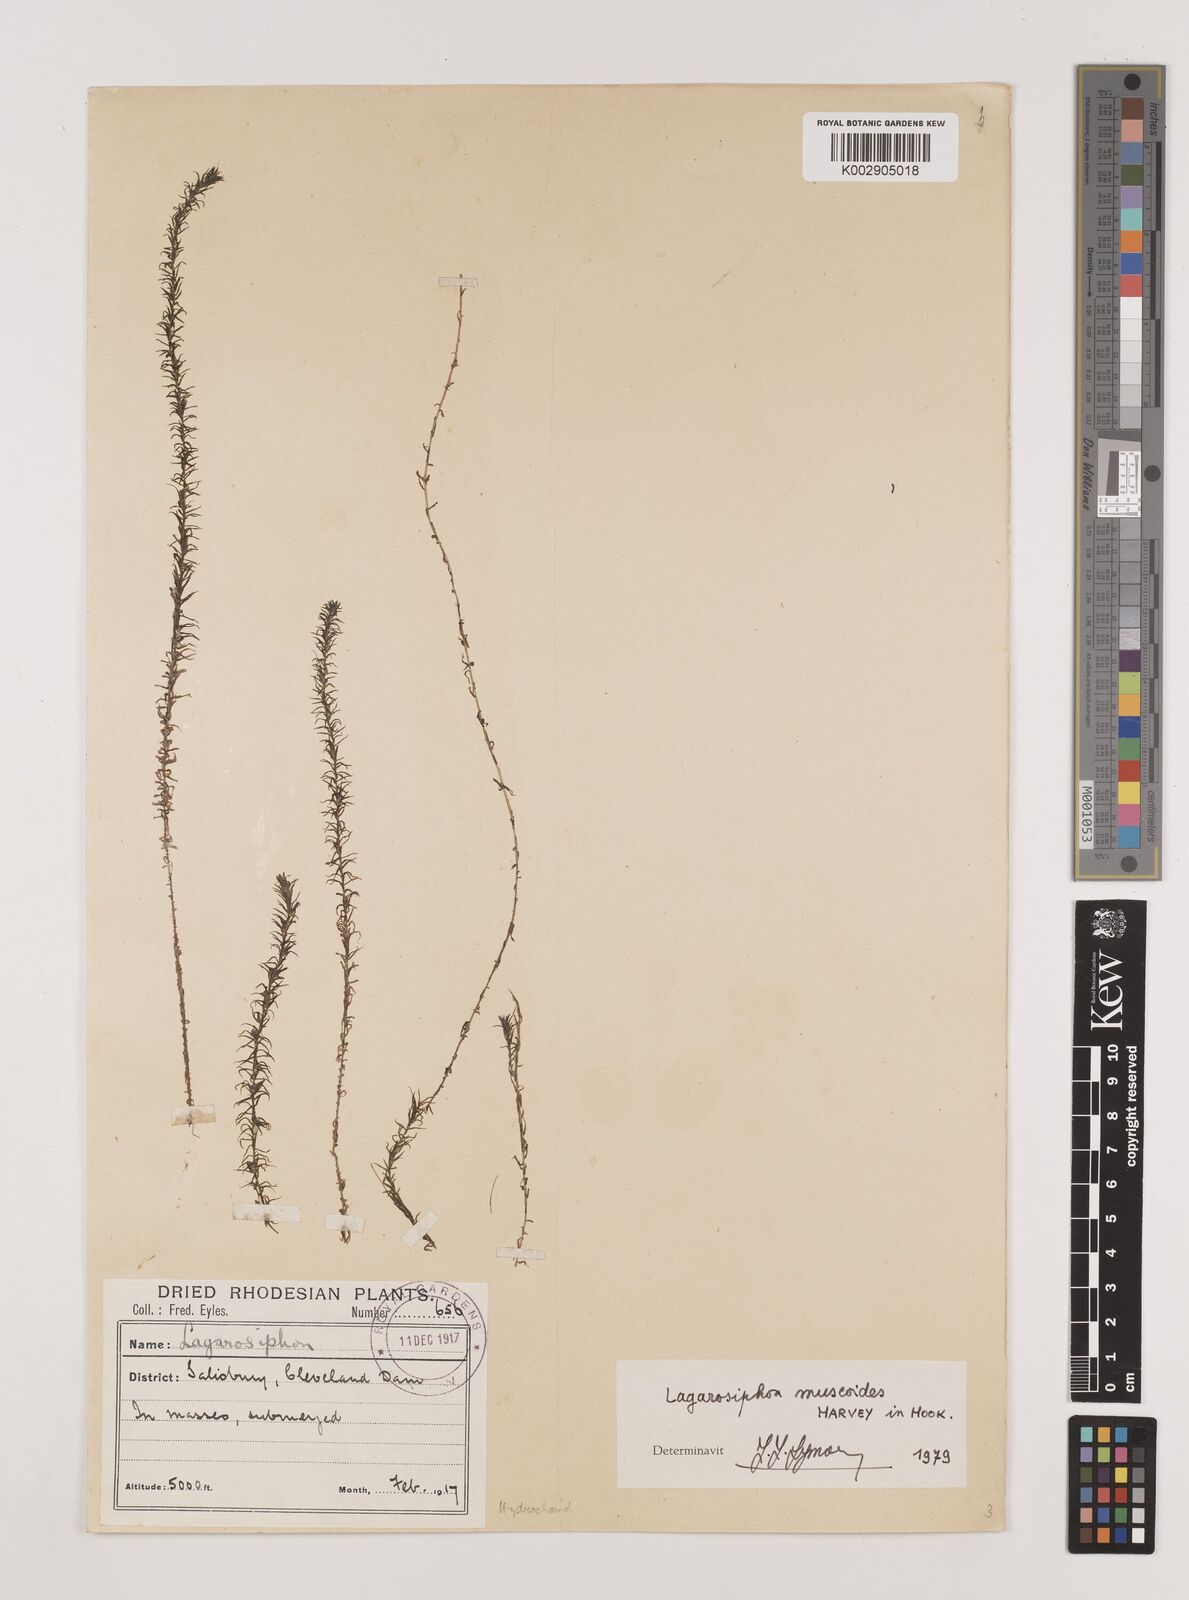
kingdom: Plantae
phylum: Tracheophyta
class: Liliopsida
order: Alismatales
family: Hydrocharitaceae
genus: Lagarosiphon
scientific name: Lagarosiphon muscoides
